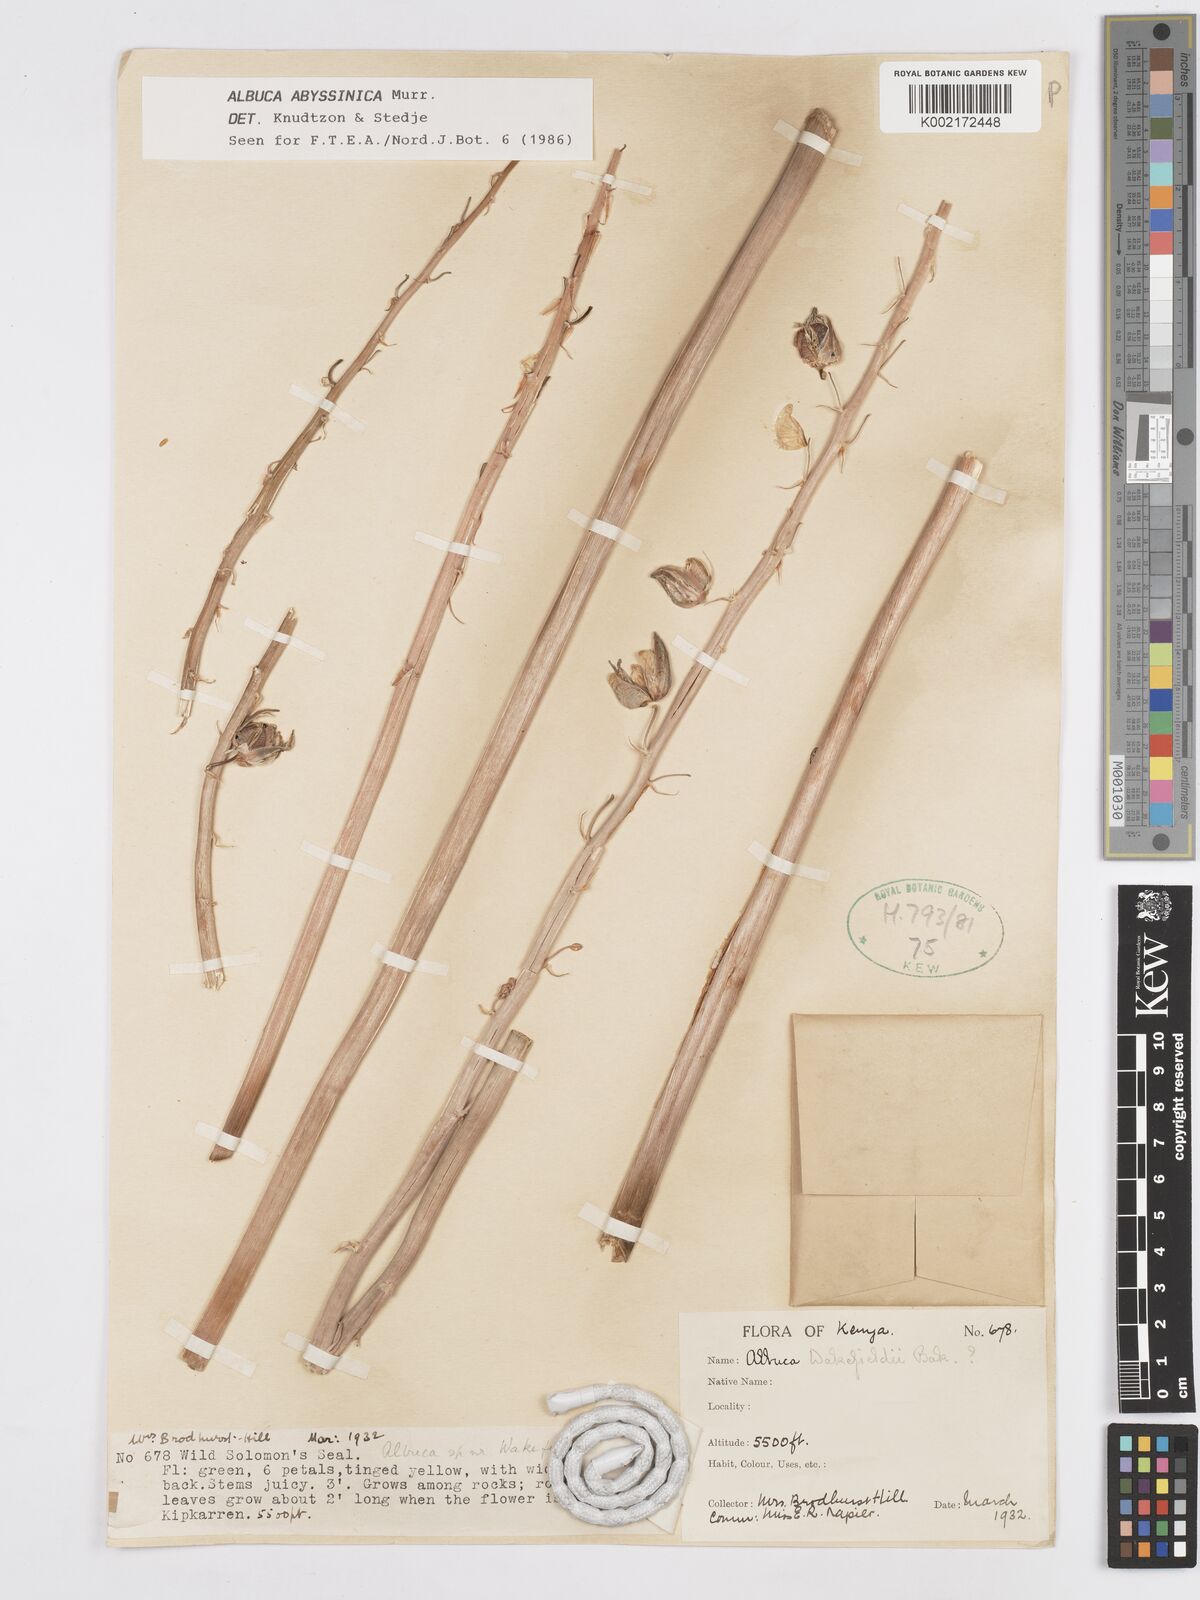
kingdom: Plantae
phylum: Tracheophyta
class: Liliopsida
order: Asparagales
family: Asparagaceae
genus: Albuca
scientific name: Albuca abyssinica
